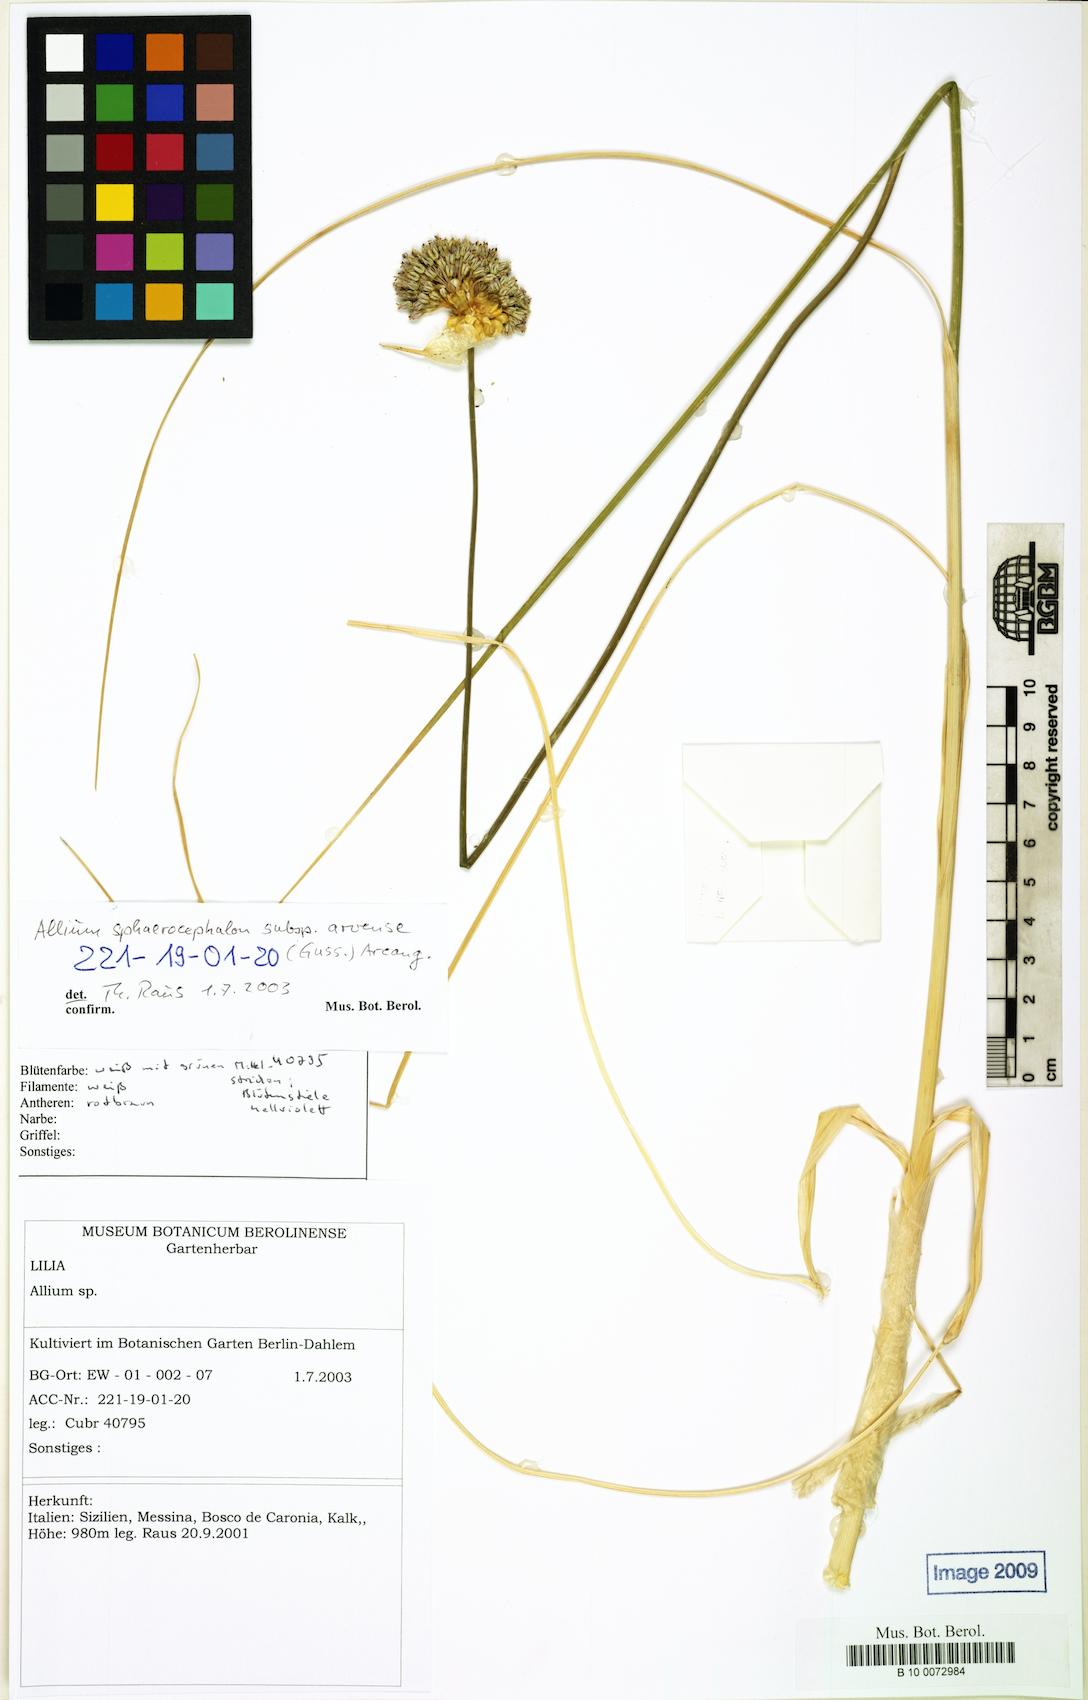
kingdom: Plantae
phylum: Tracheophyta
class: Liliopsida
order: Asparagales
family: Amaryllidaceae
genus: Allium
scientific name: Allium sphaerocephalon
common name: Round-headed leek
